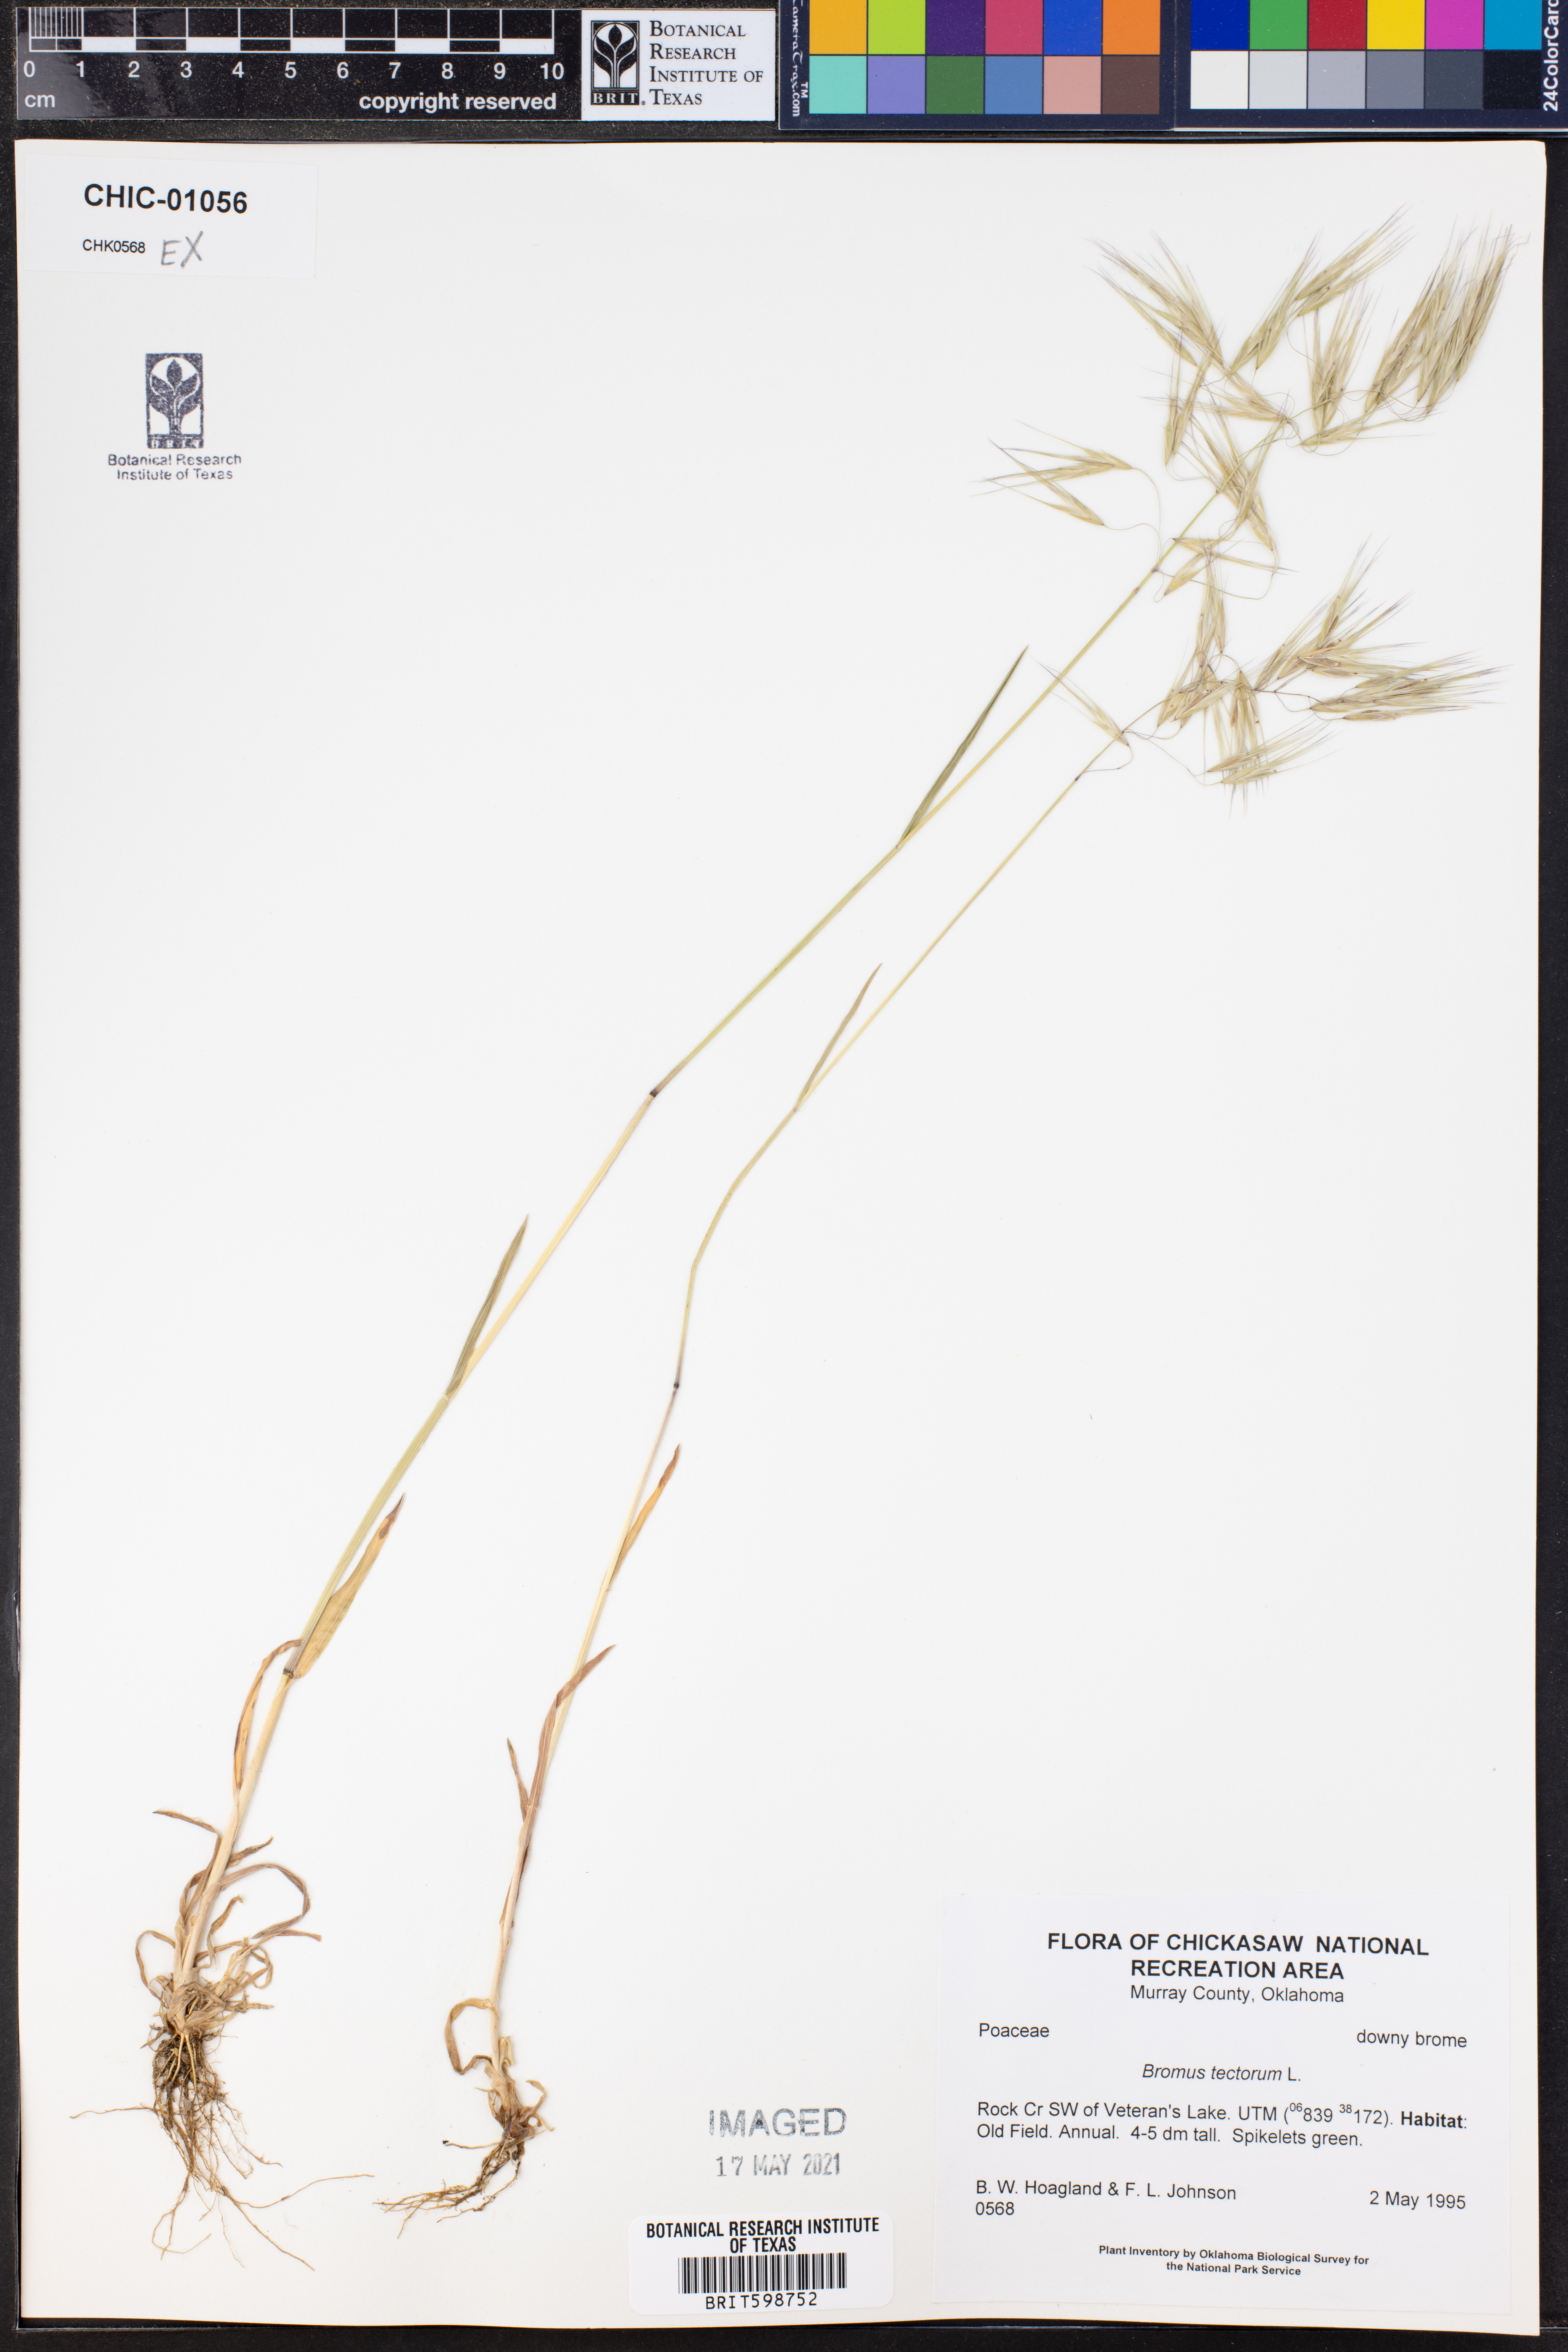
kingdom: Plantae
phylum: Tracheophyta
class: Liliopsida
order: Poales
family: Poaceae
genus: Bromus
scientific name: Bromus tectorum
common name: Cheatgrass
